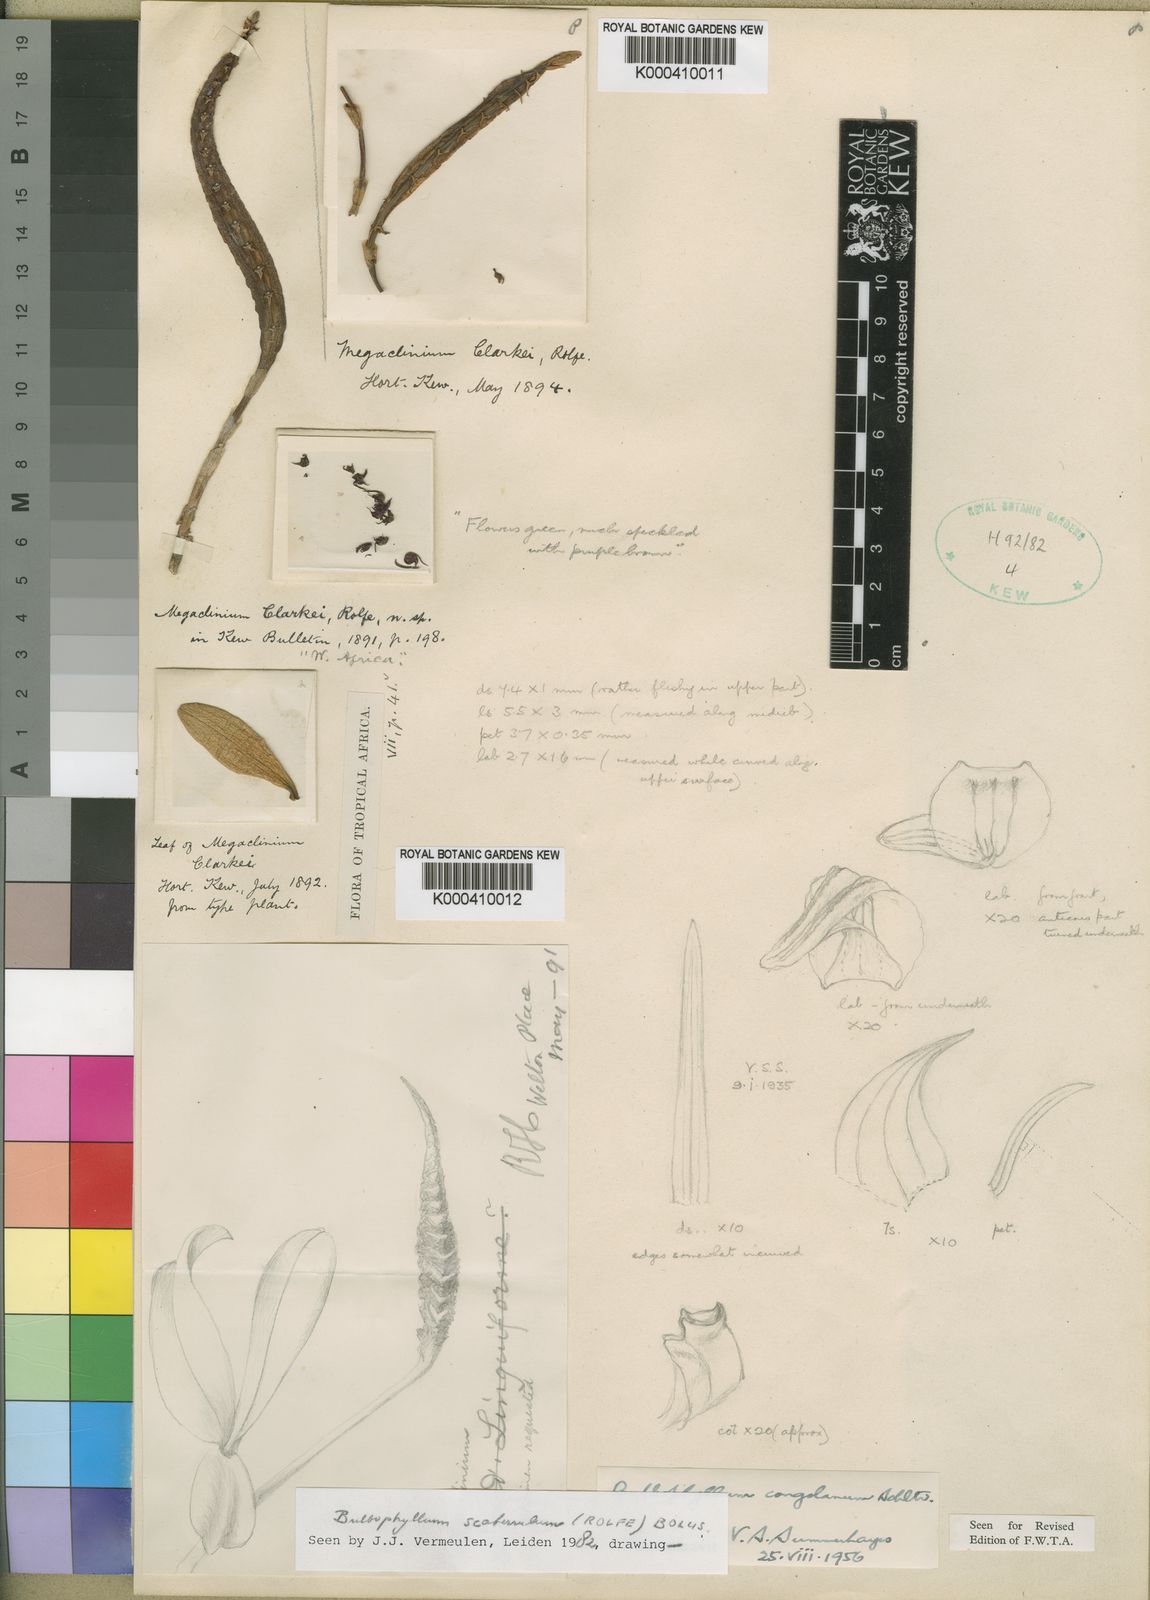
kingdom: Plantae
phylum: Tracheophyta
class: Liliopsida
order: Asparagales
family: Orchidaceae
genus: Bulbophyllum
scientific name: Bulbophyllum scaberulum
